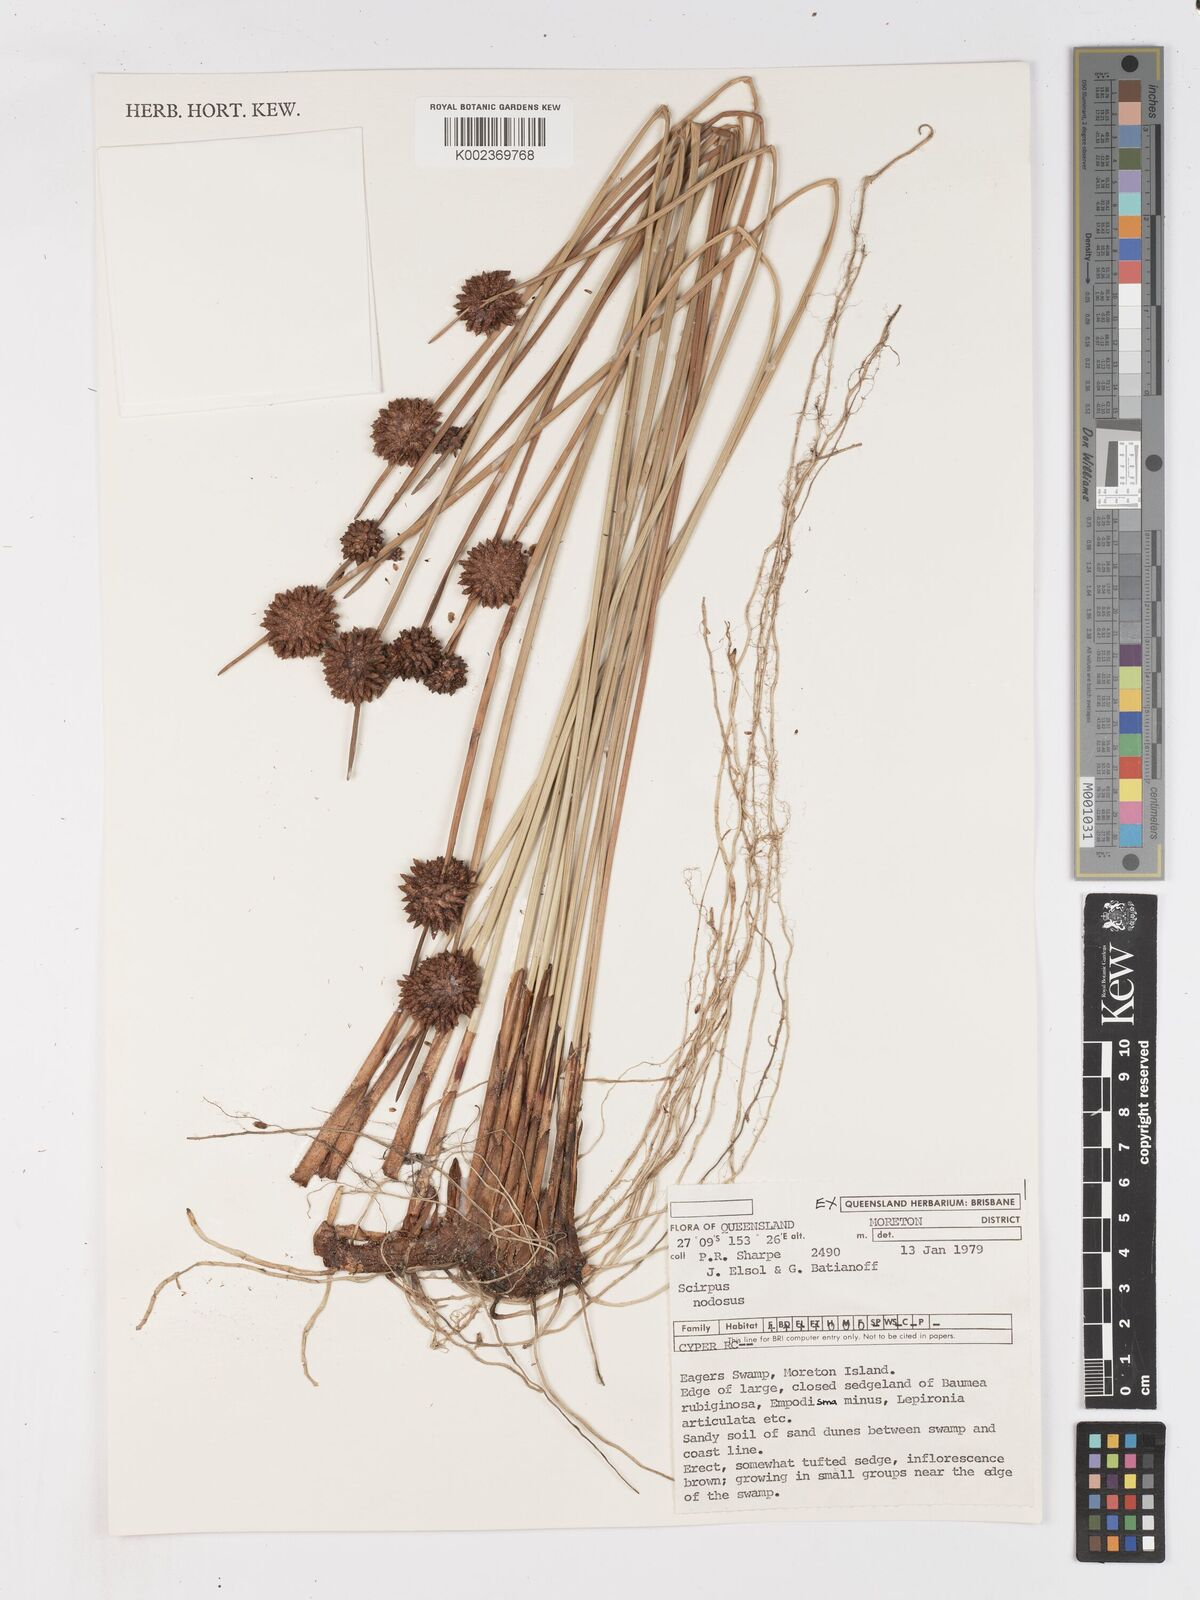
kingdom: Plantae
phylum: Tracheophyta
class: Liliopsida
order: Poales
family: Cyperaceae
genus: Ficinia
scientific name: Ficinia nodosa
